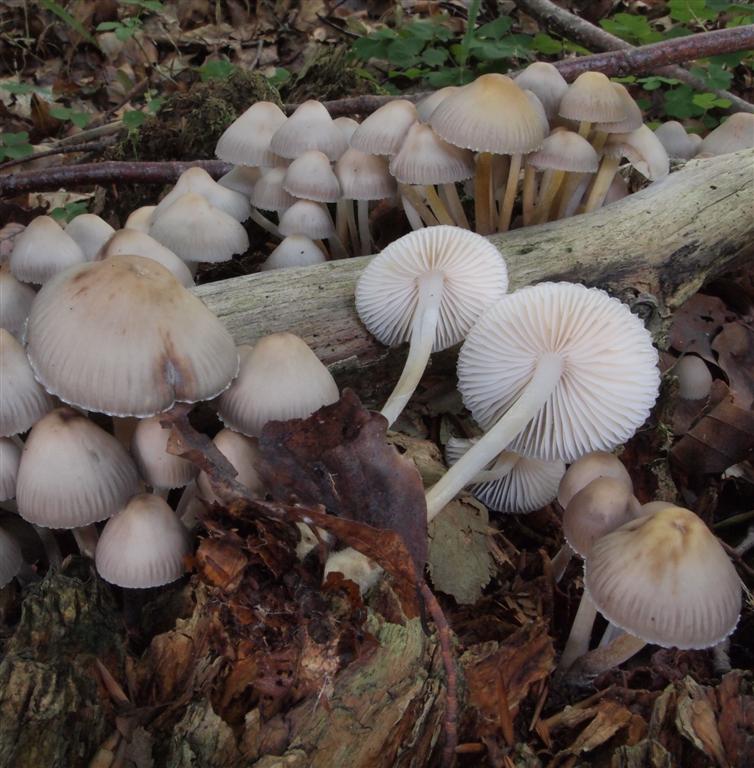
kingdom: Fungi
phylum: Basidiomycota
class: Agaricomycetes
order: Agaricales
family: Mycenaceae
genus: Mycena
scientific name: Mycena inclinata
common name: nikkende huesvamp
